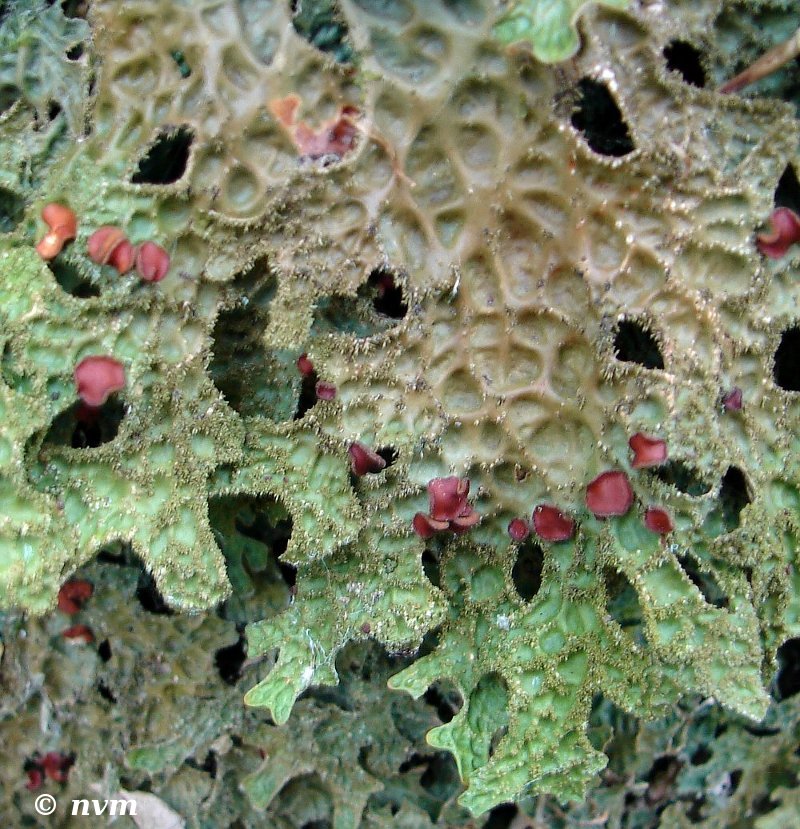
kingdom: Fungi
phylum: Ascomycota
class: Lecanoromycetes
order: Peltigerales
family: Lobariaceae
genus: Lobaria
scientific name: Lobaria pulmonaria
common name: almindelig lungelav
